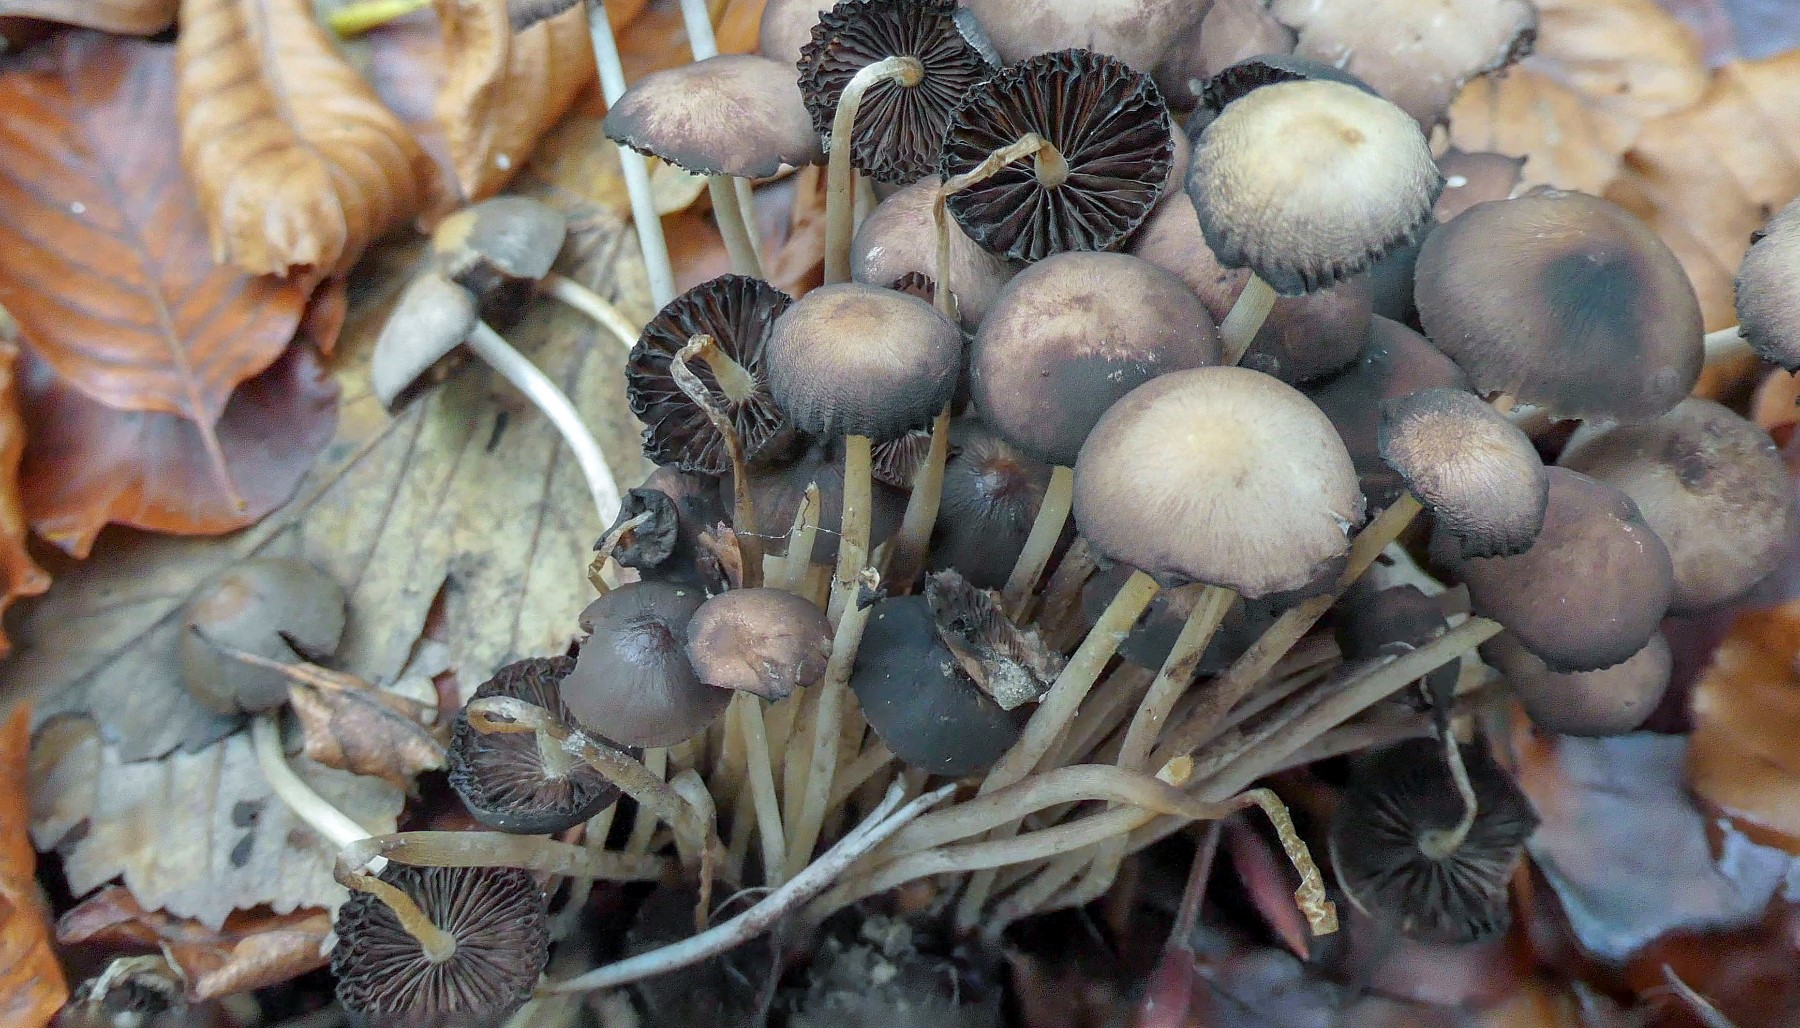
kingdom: Fungi
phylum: Basidiomycota
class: Agaricomycetes
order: Agaricales
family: Psathyrellaceae
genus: Britzelmayria
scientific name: Britzelmayria multipedata
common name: knippe-mørkhat
